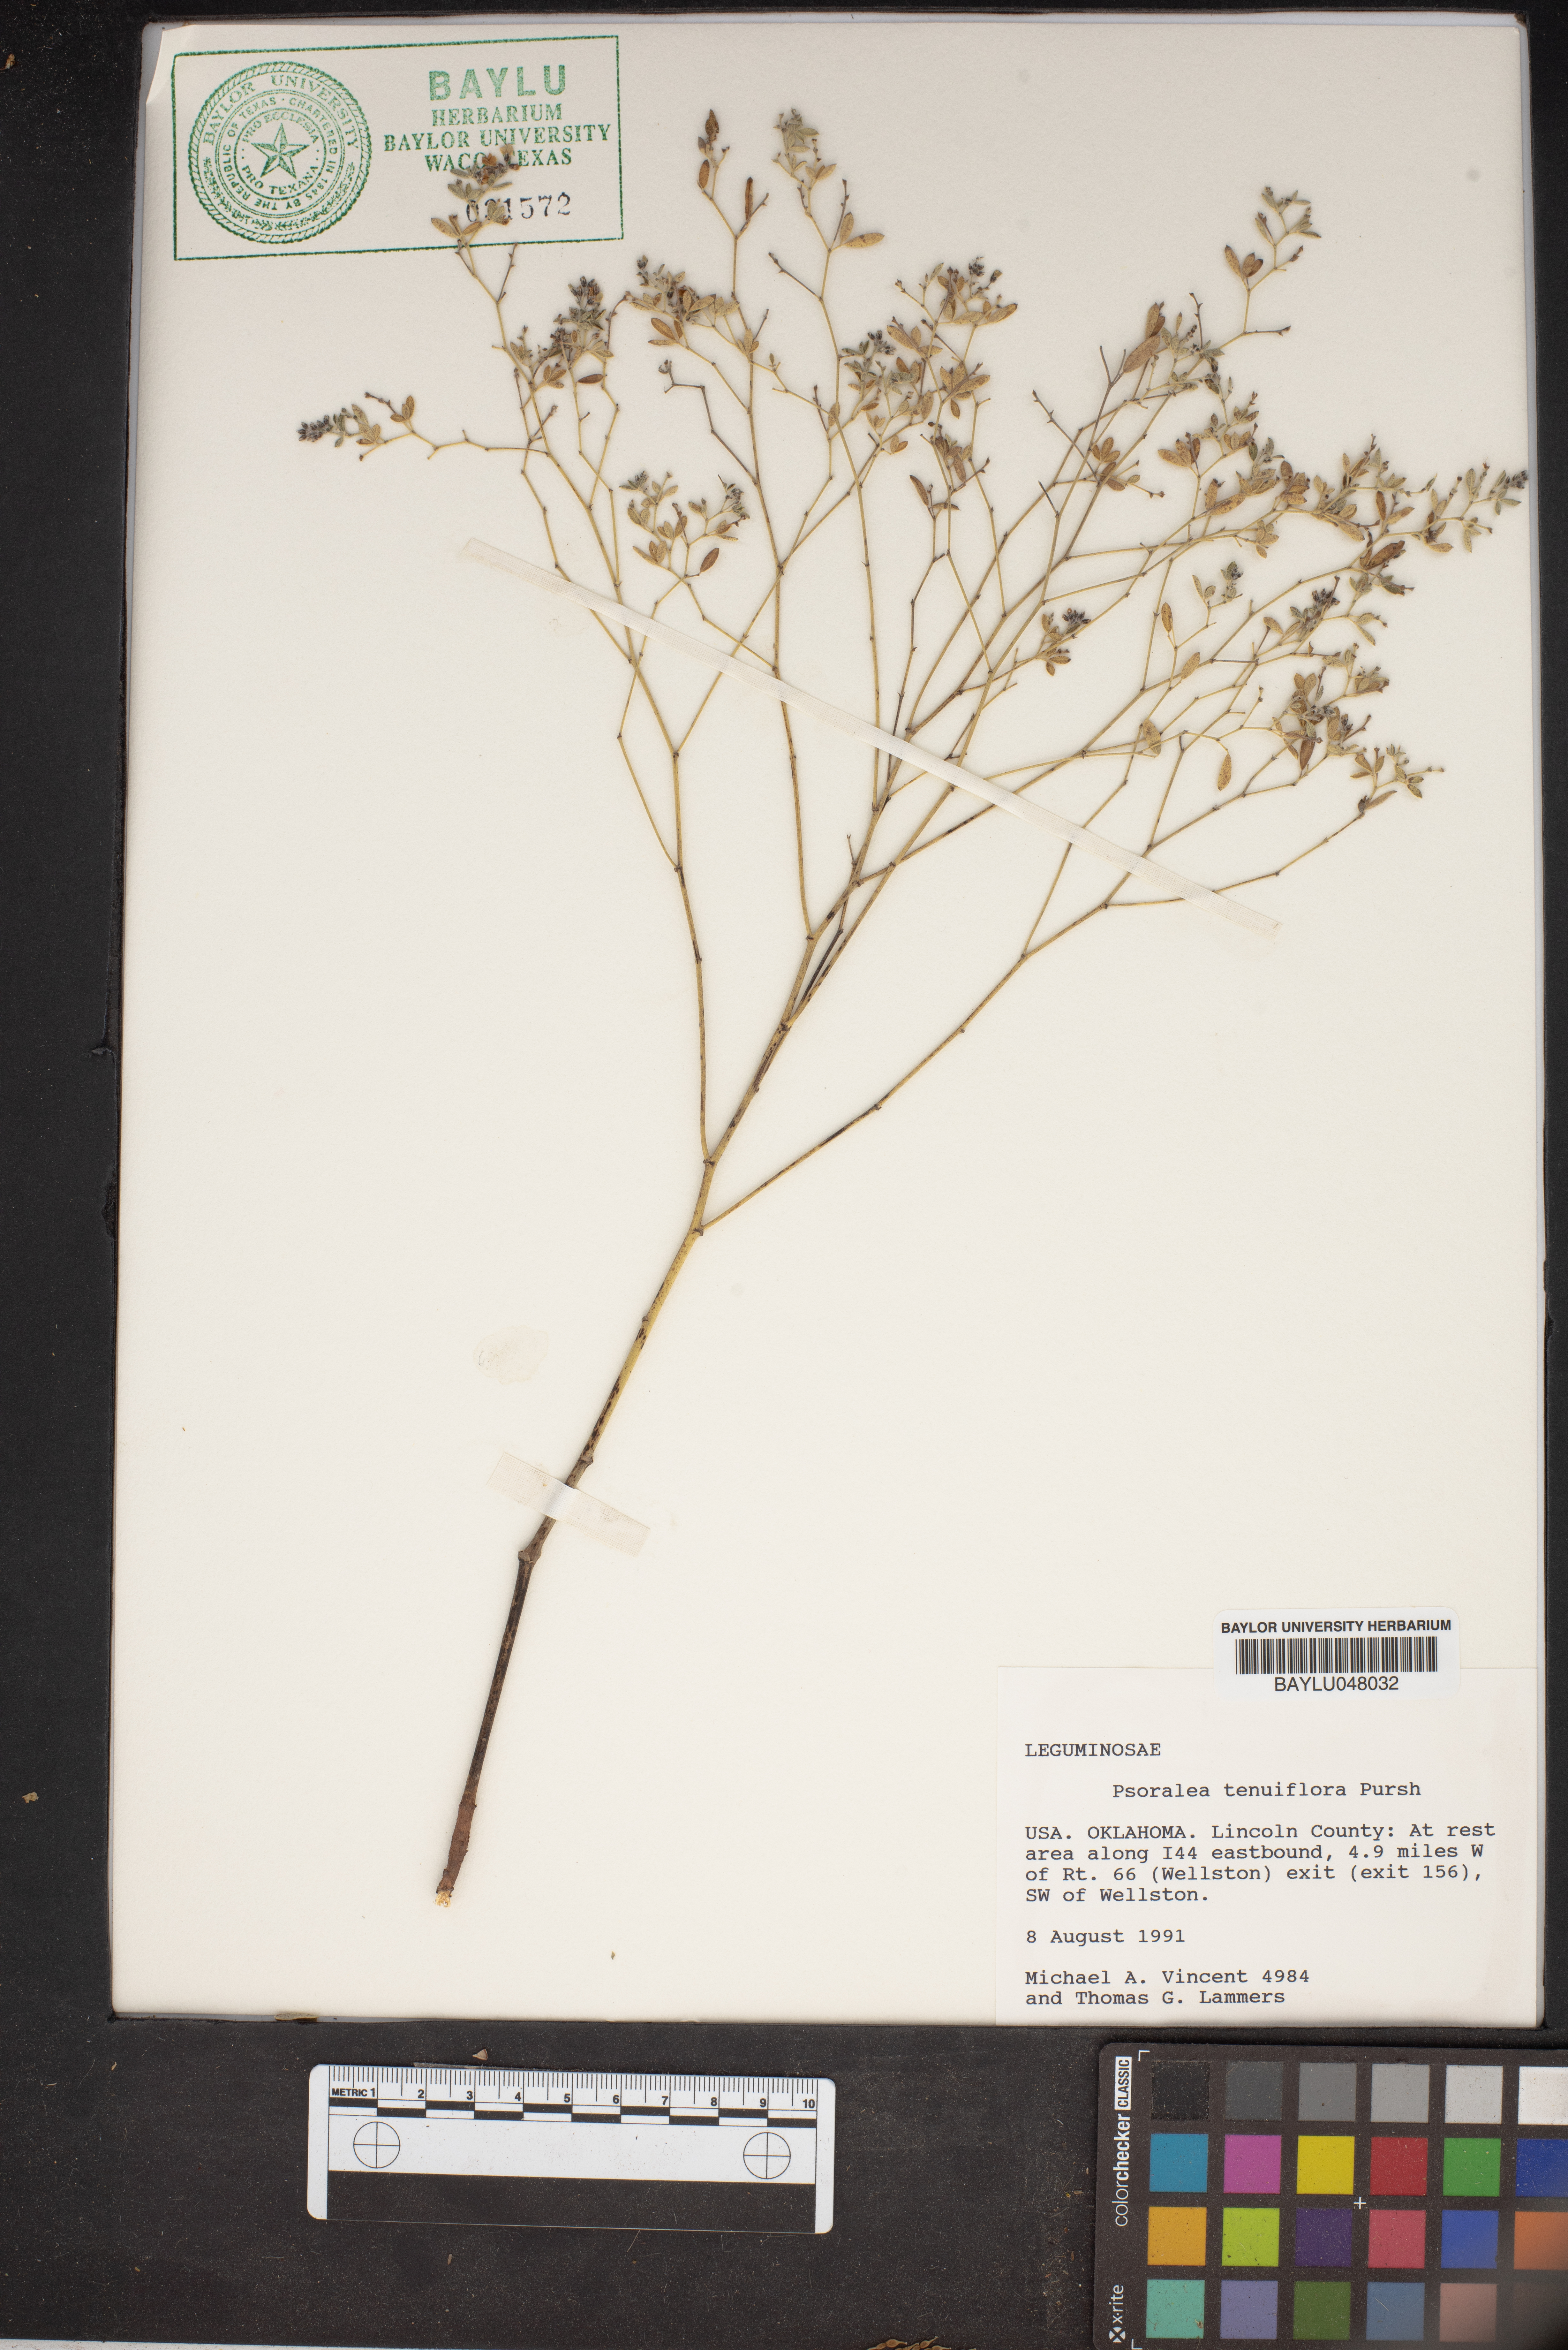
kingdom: Plantae
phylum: Tracheophyta
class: Magnoliopsida
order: Fabales
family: Fabaceae
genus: Pediomelum
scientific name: Pediomelum tenuiflorum
